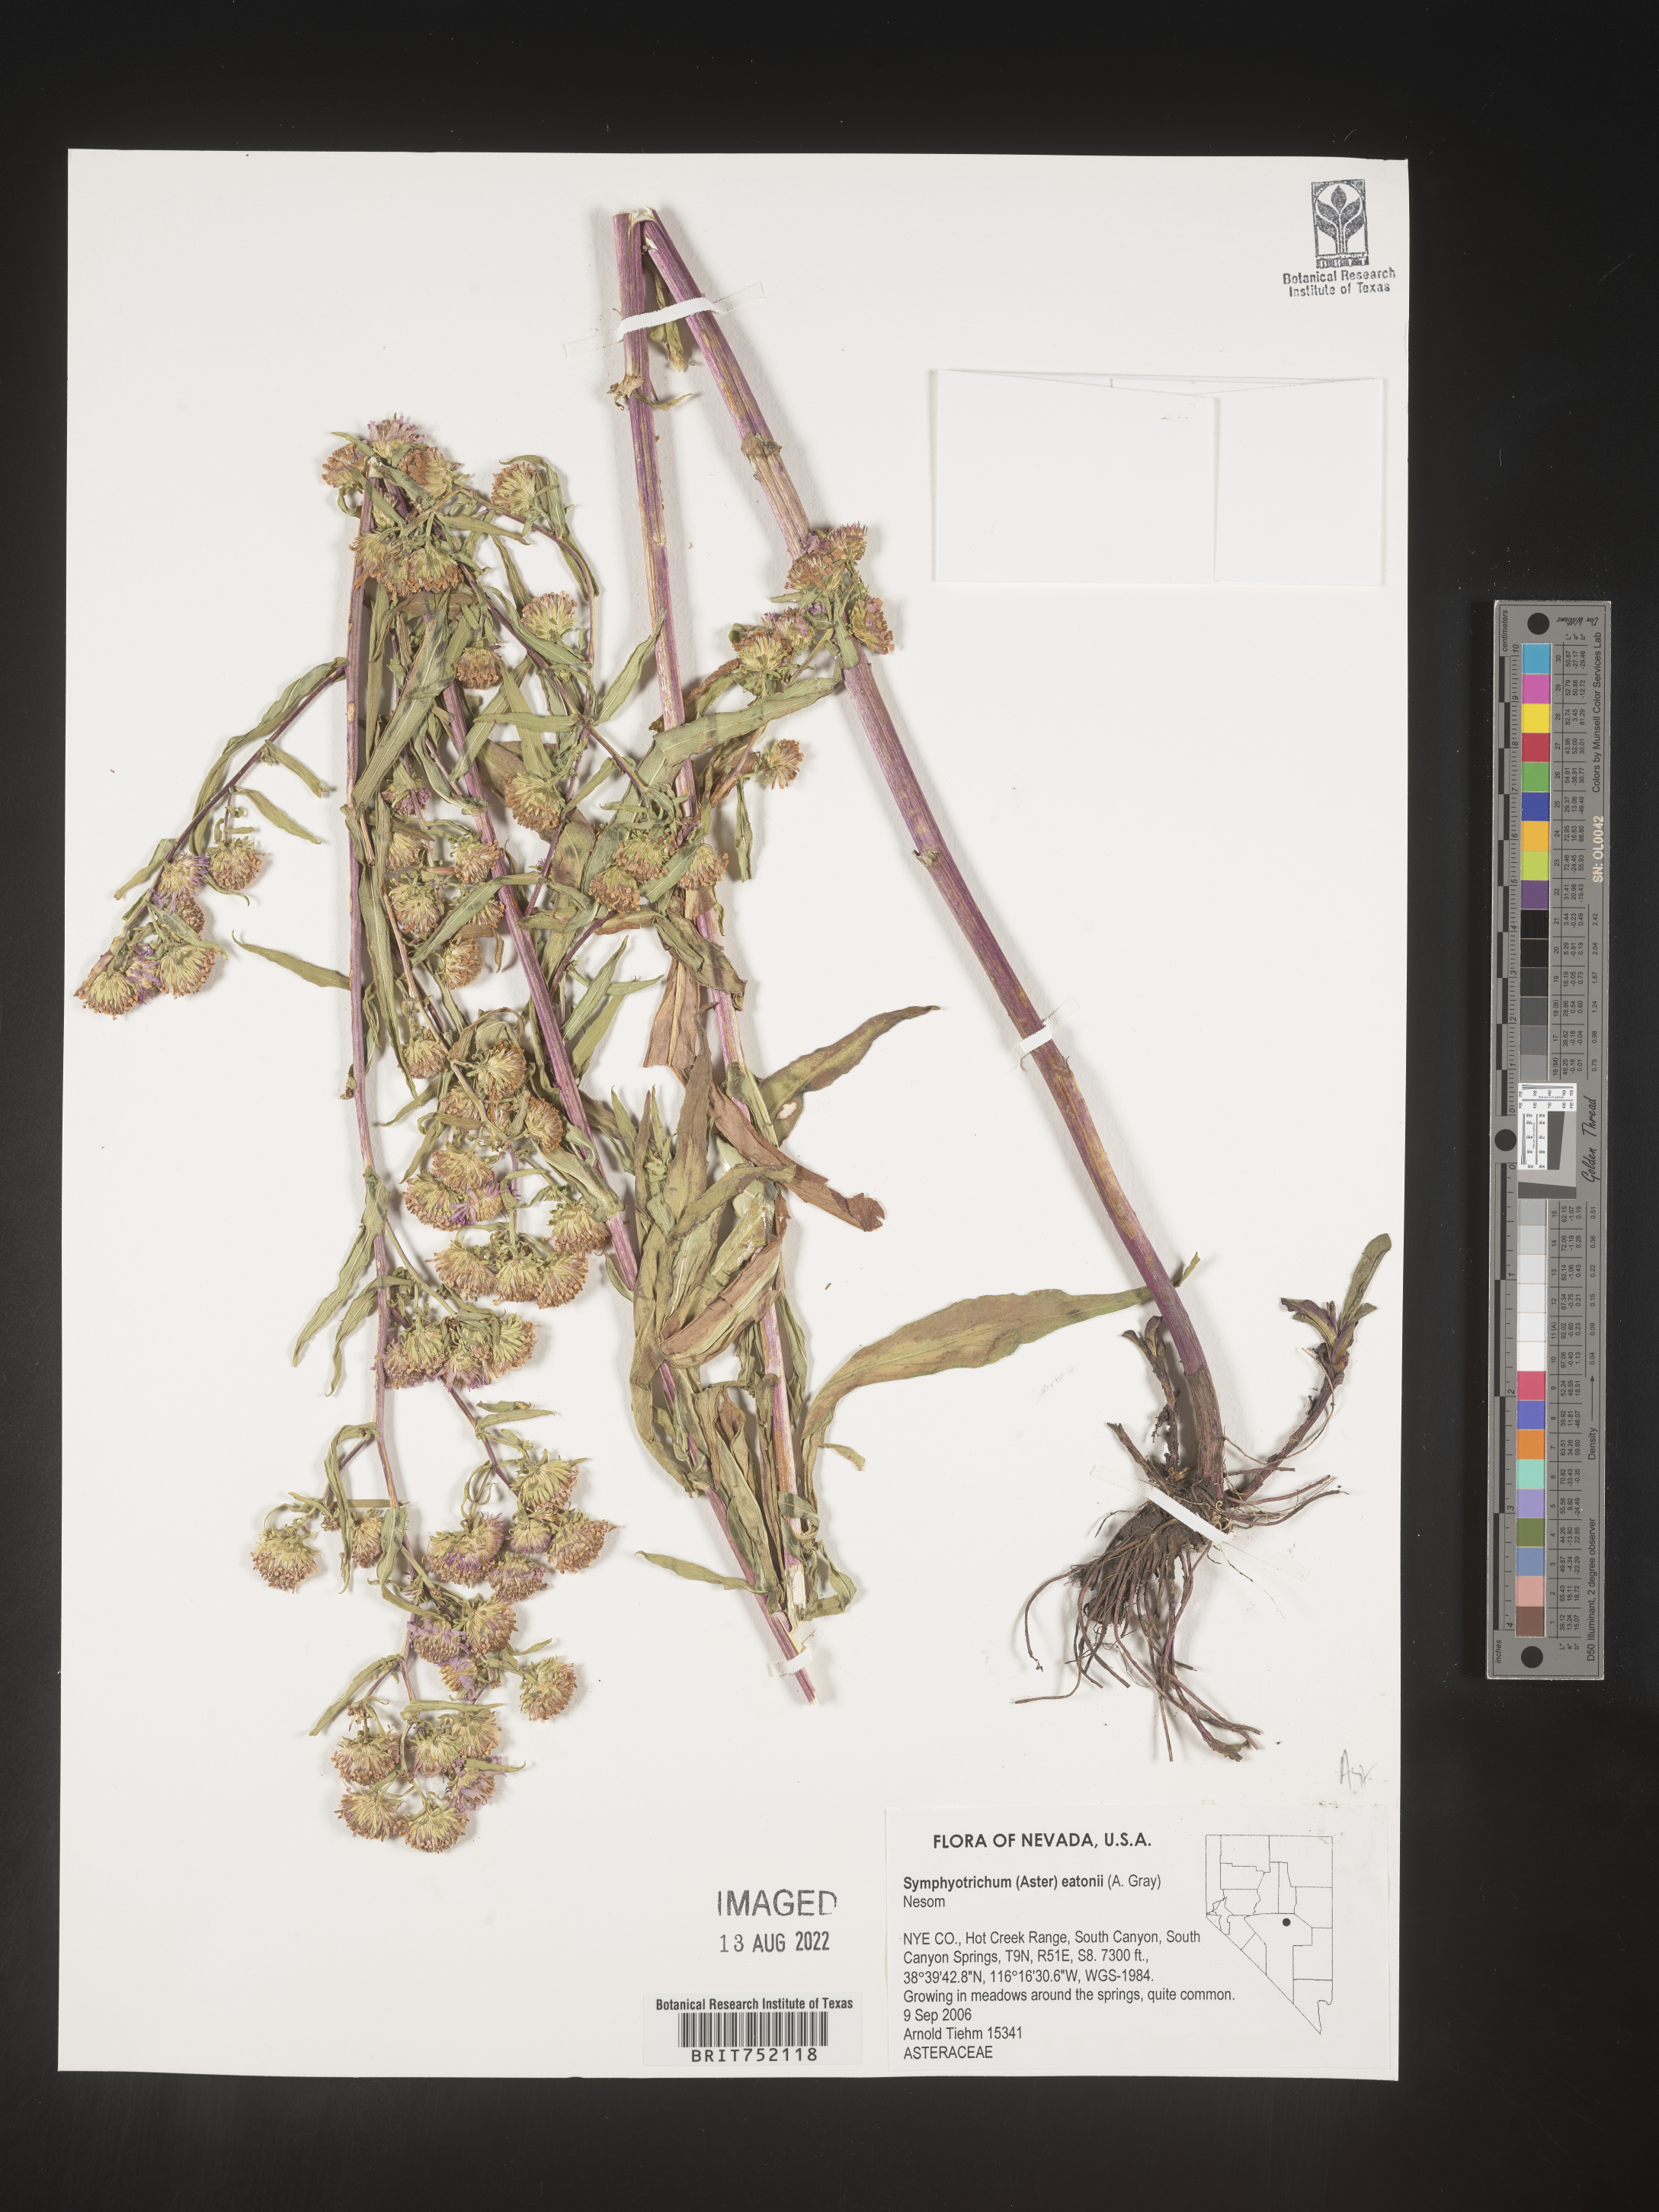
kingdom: Plantae
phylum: Tracheophyta
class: Magnoliopsida
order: Asterales
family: Asteraceae
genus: Symphyotrichum
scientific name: Symphyotrichum bracteolatum
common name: Eaton's aster
